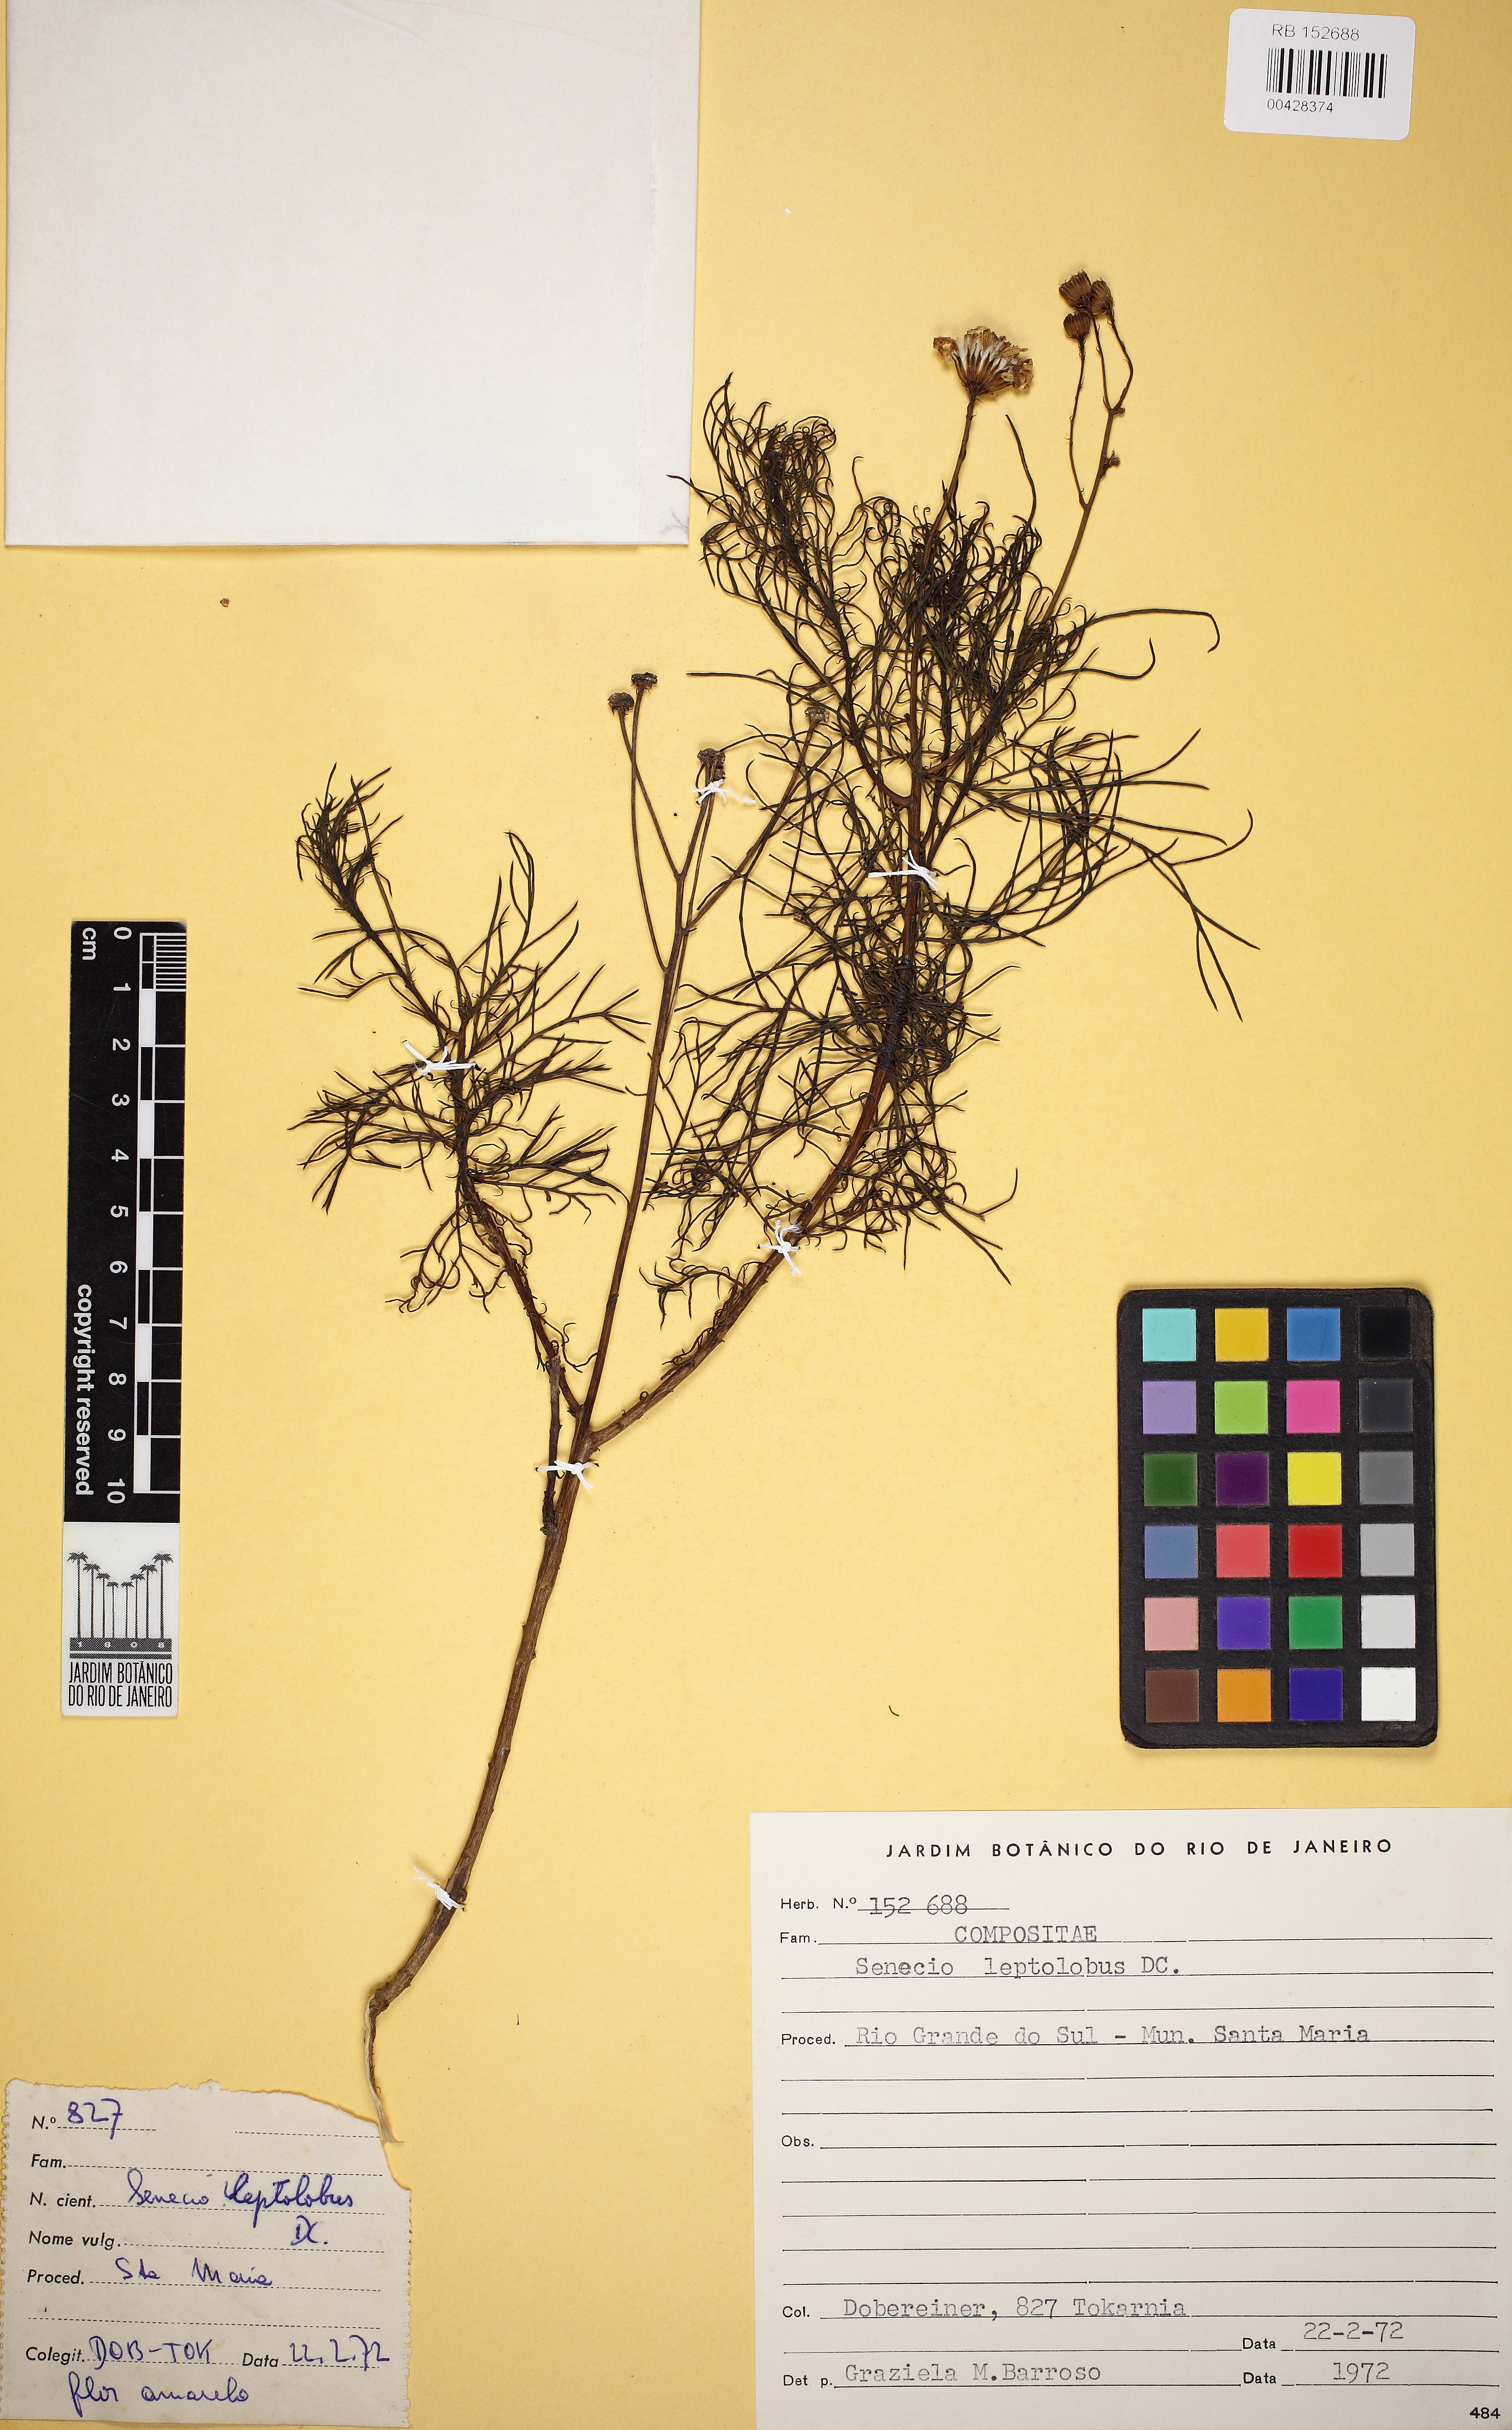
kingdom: Plantae
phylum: Tracheophyta
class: Magnoliopsida
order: Asterales
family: Asteraceae
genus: Senecio
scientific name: Senecio leptolobus
